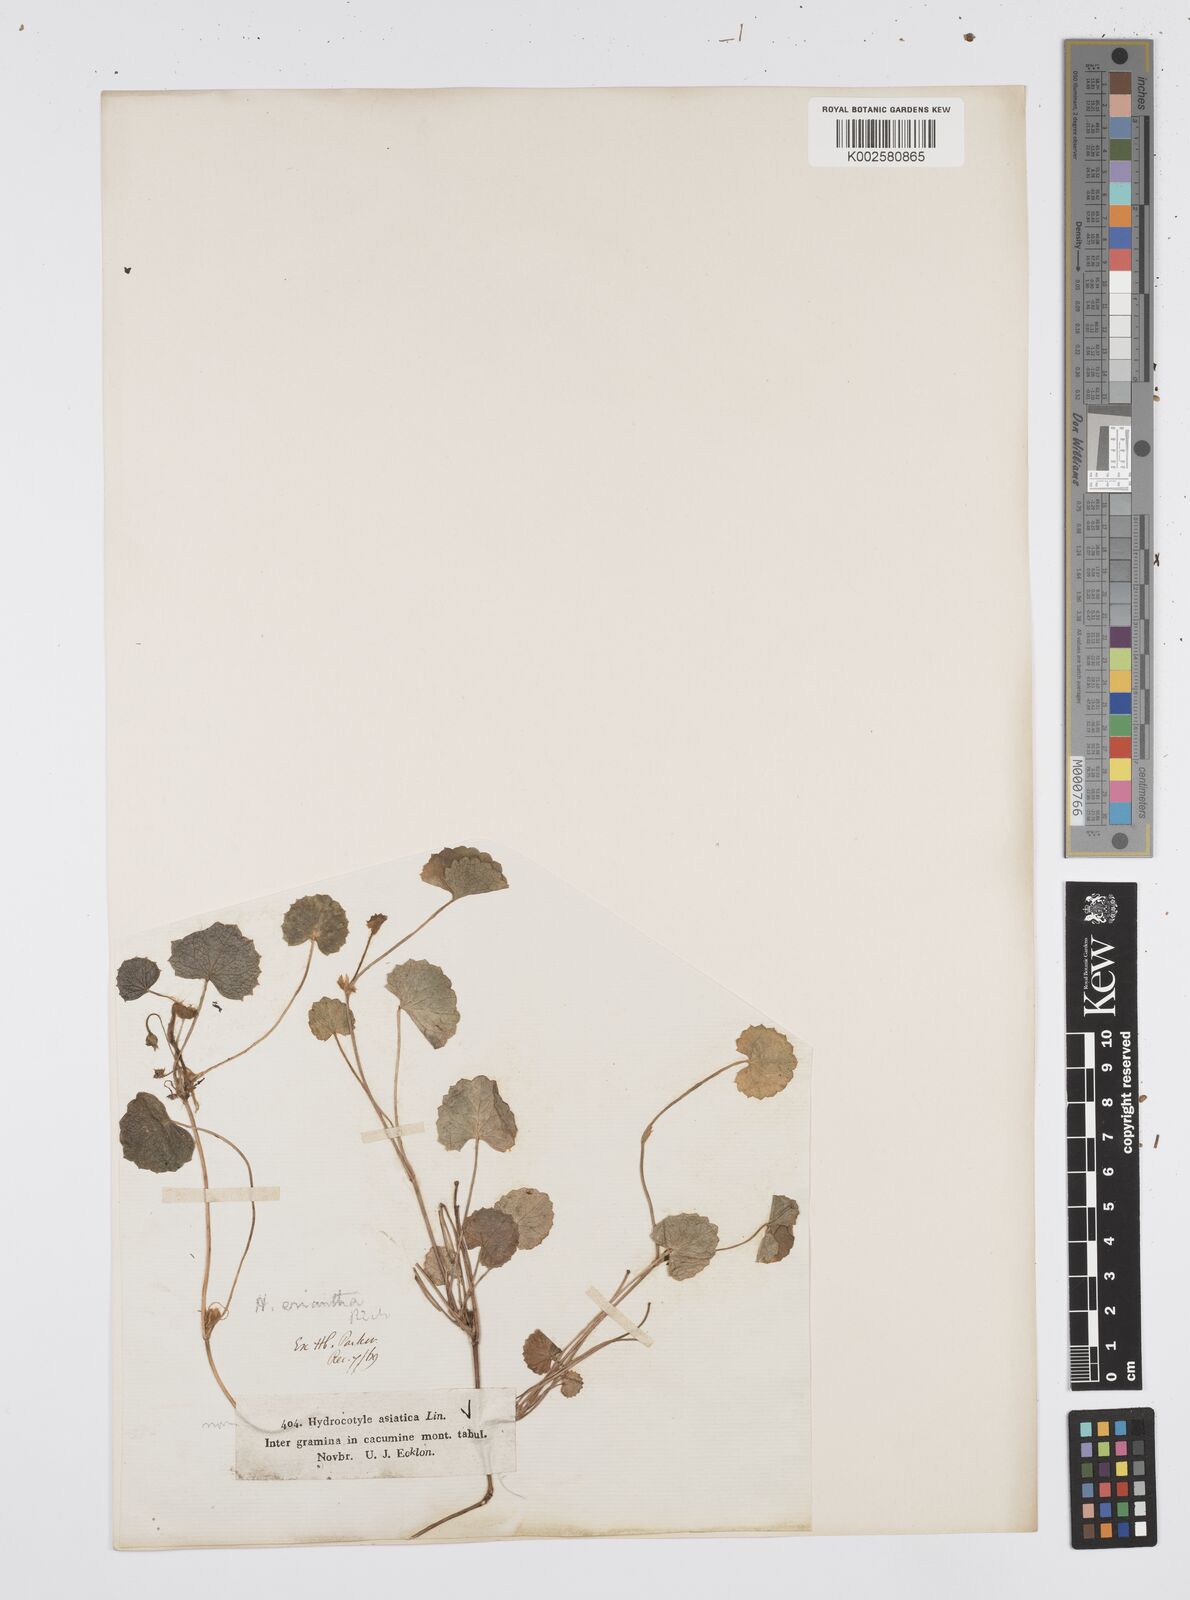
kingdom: Plantae
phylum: Tracheophyta
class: Magnoliopsida
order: Apiales
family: Apiaceae
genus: Centella
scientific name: Centella eriantha
